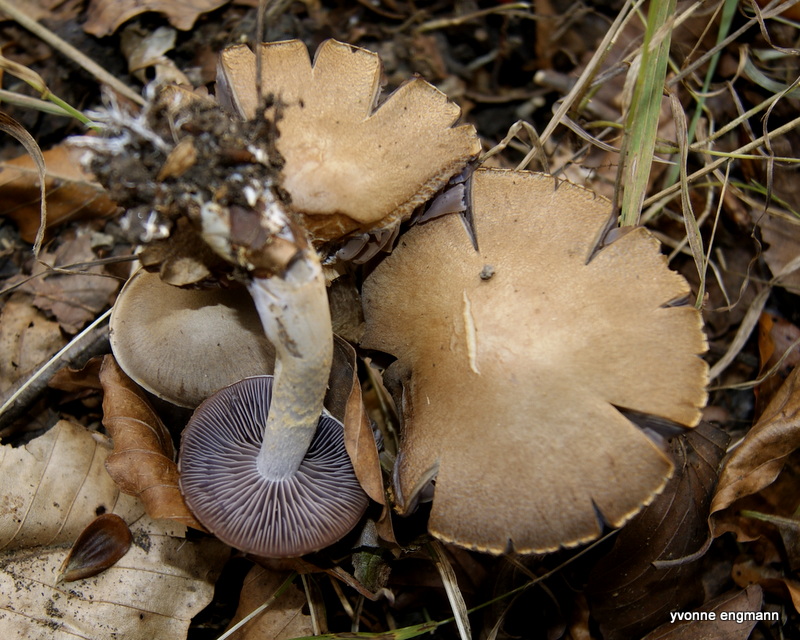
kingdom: Fungi
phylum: Basidiomycota
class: Agaricomycetes
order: Agaricales
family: Cortinariaceae
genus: Cortinarius
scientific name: Cortinarius
